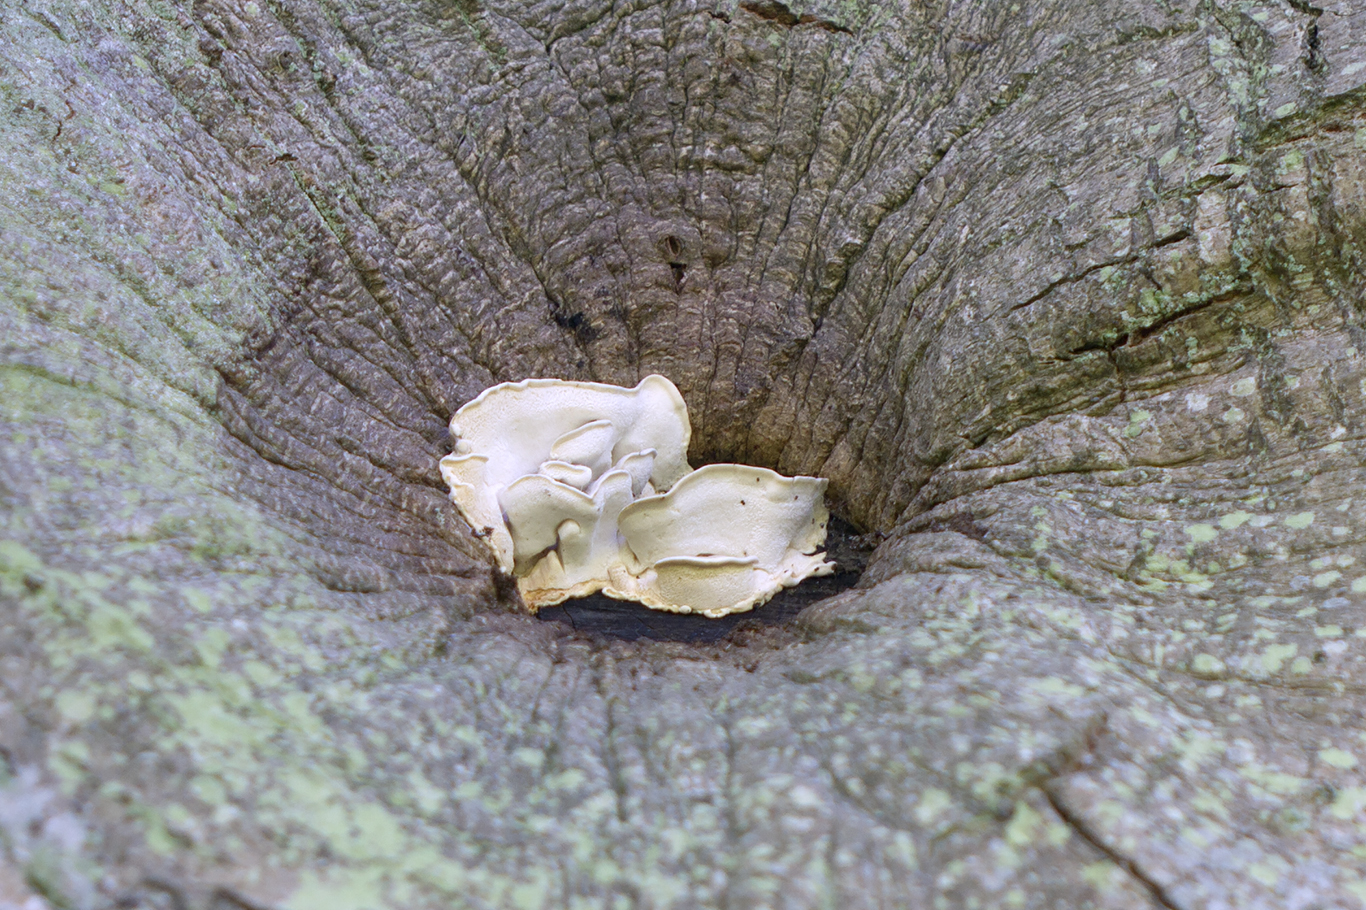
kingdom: Fungi
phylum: Basidiomycota
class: Agaricomycetes
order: Polyporales
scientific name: Polyporales
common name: poresvampordenen
